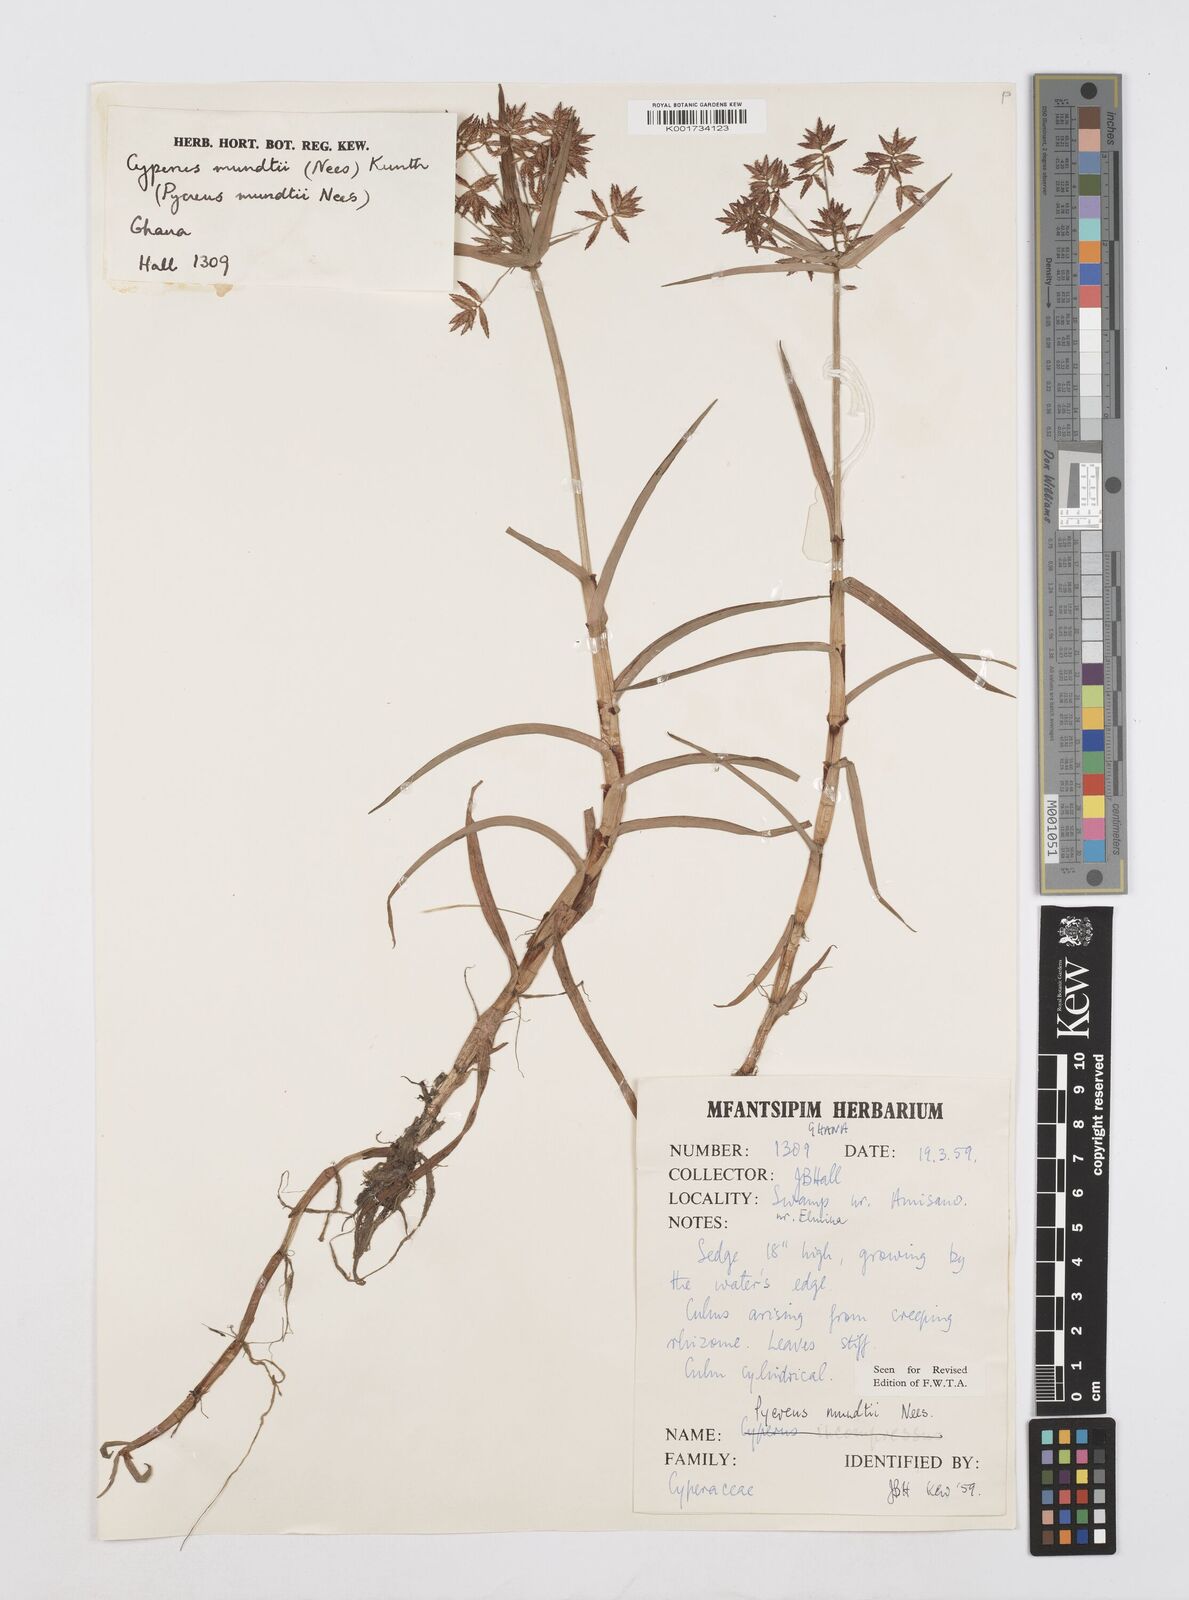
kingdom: Plantae
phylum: Tracheophyta
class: Liliopsida
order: Poales
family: Cyperaceae
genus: Cyperus
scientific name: Cyperus mundii
